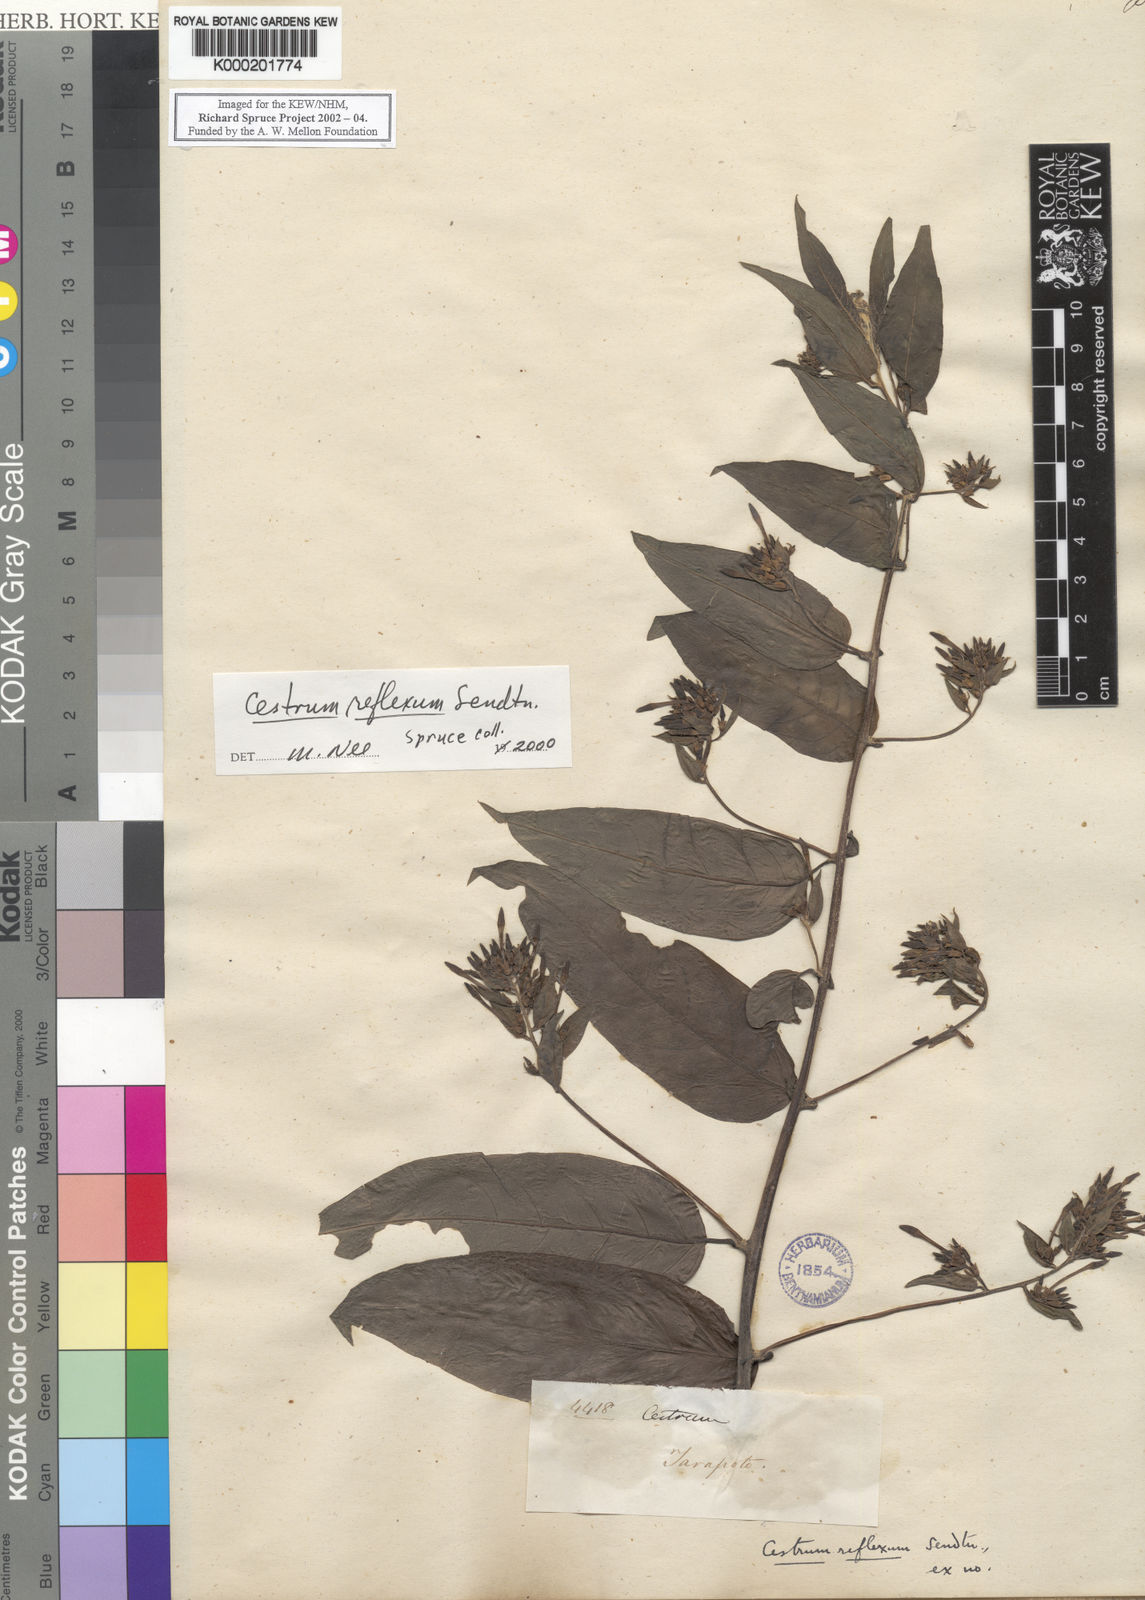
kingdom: Plantae
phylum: Tracheophyta
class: Magnoliopsida
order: Solanales
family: Solanaceae
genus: Cestrum
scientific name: Cestrum reflexum
